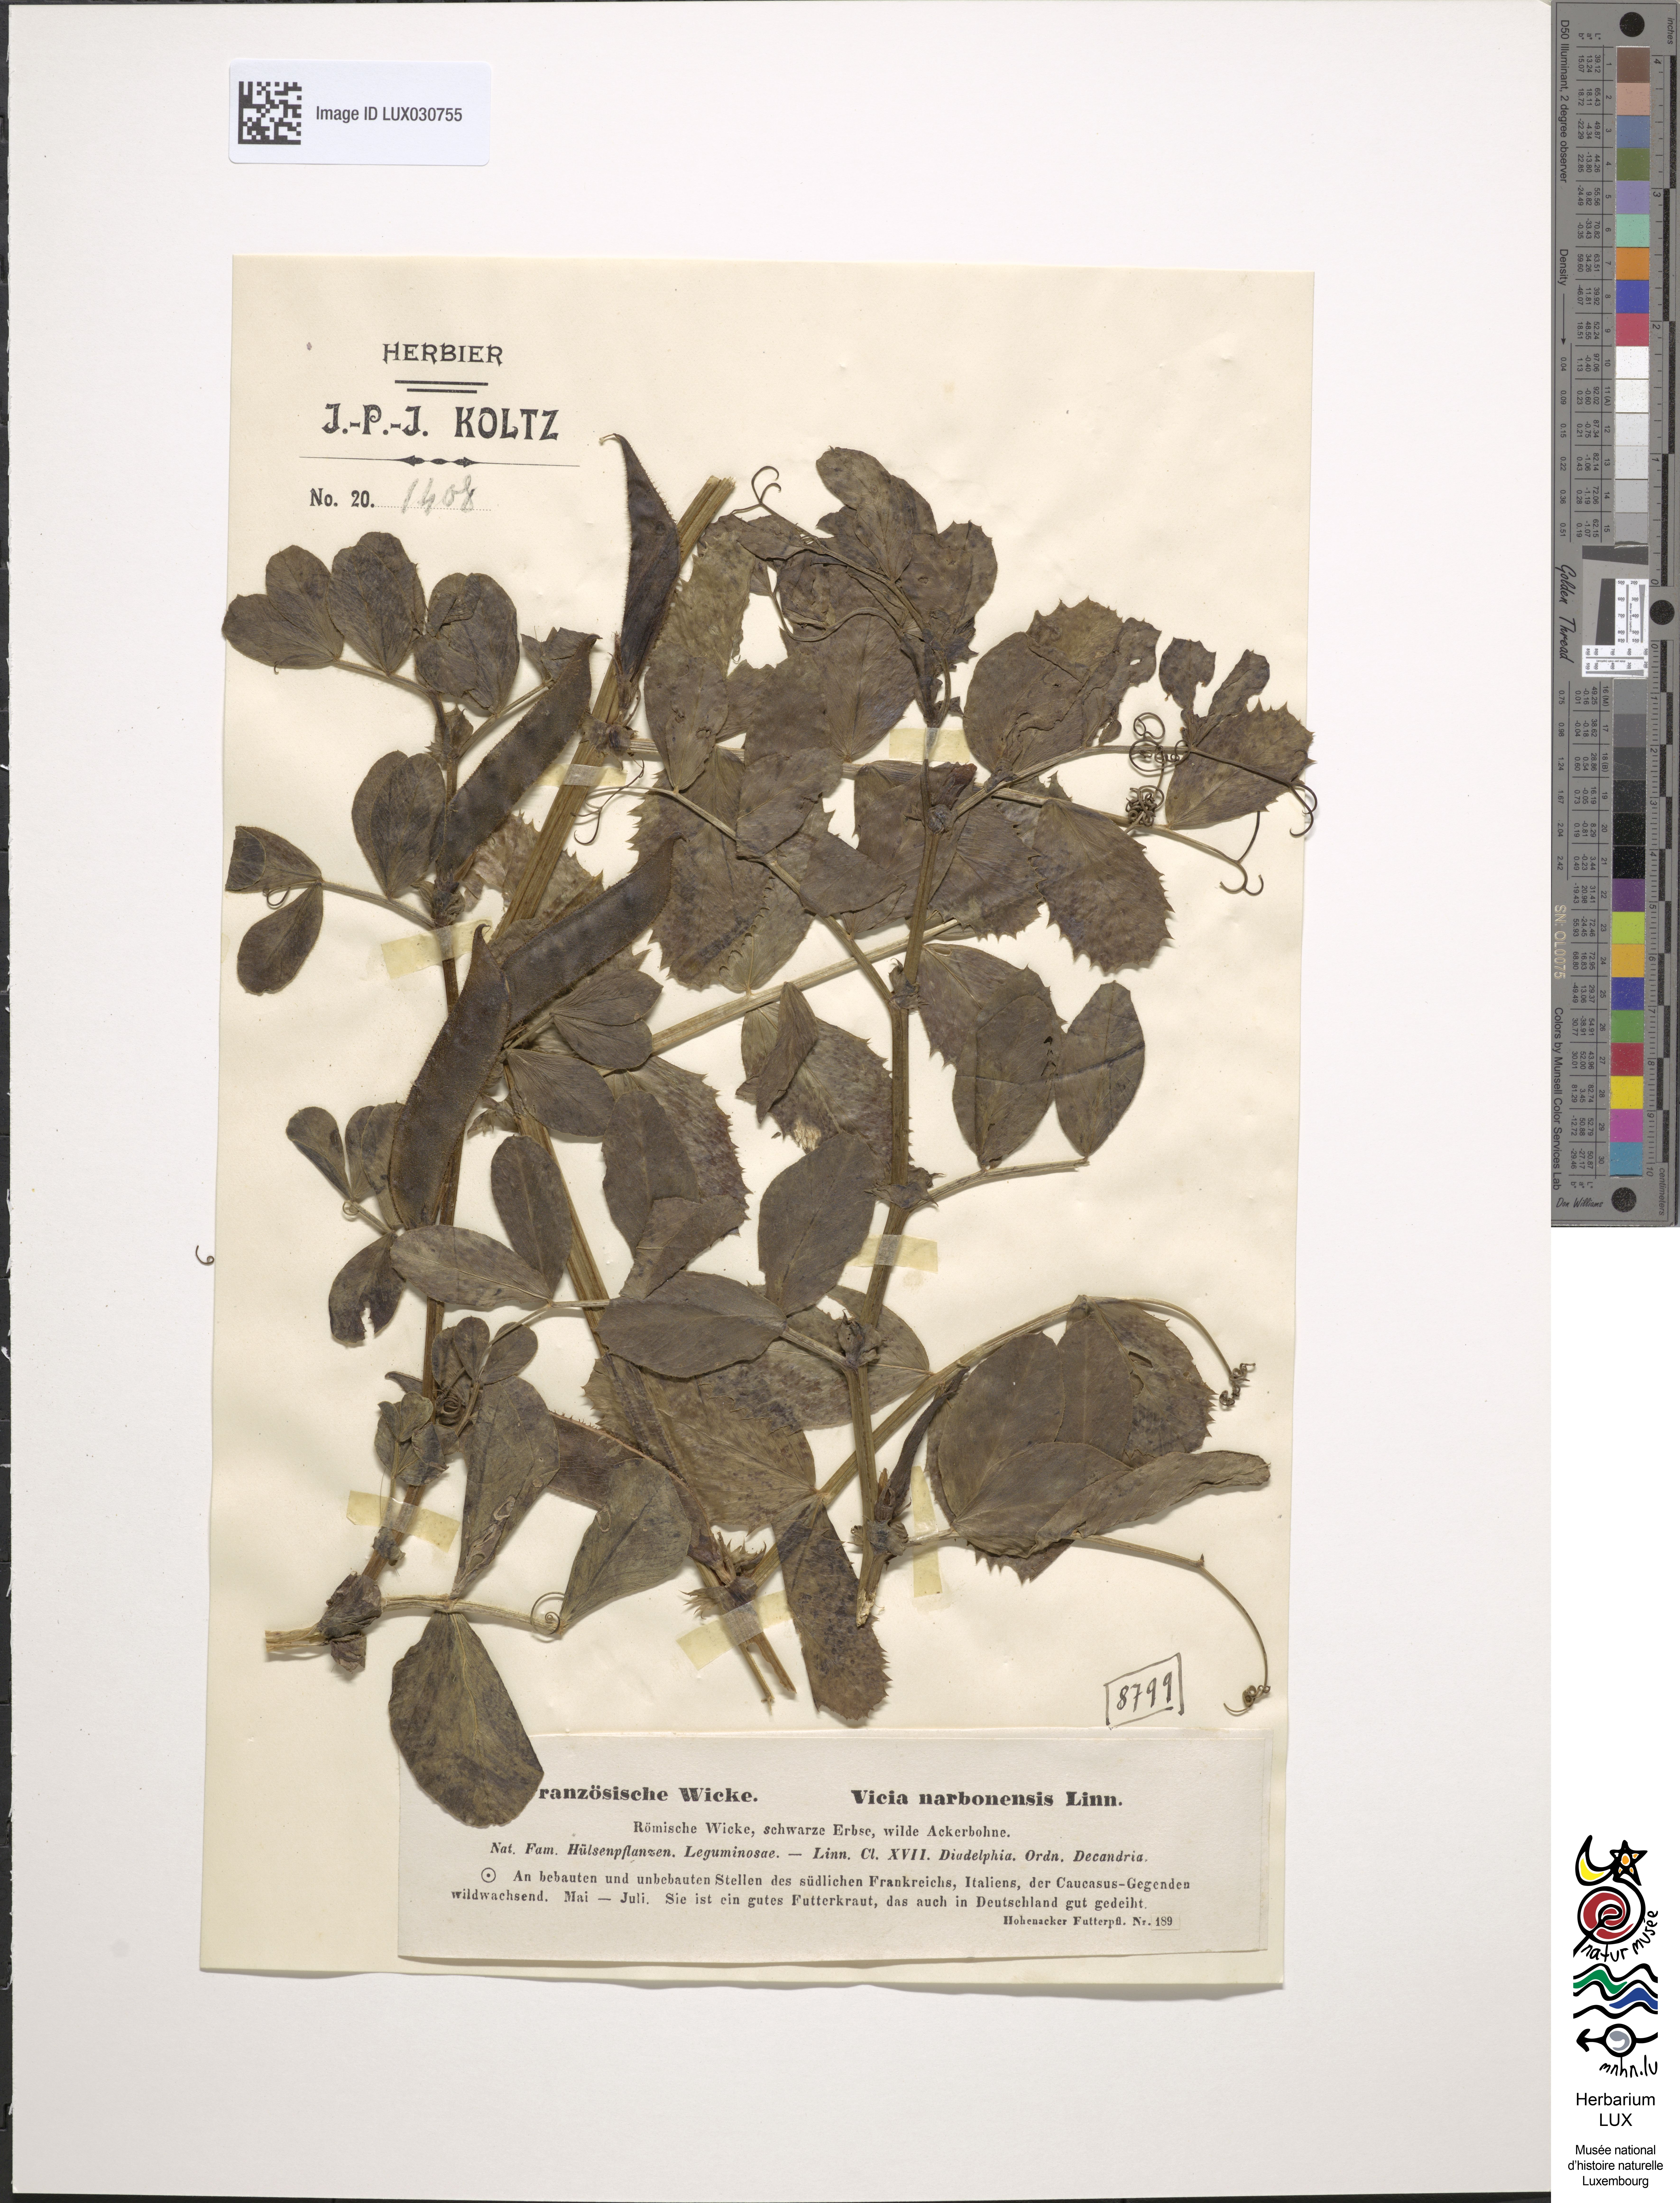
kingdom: Plantae
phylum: Tracheophyta
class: Magnoliopsida
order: Fabales
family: Fabaceae
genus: Vicia
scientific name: Vicia narbonensis
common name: Narbonne vetch
